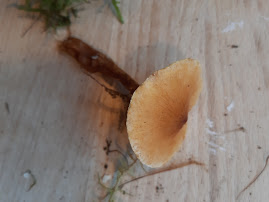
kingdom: Fungi
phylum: Basidiomycota
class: Agaricomycetes
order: Agaricales
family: Tricholomataceae
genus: Cystoderma
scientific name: Cystoderma amianthinum
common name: okkergul grynhat
